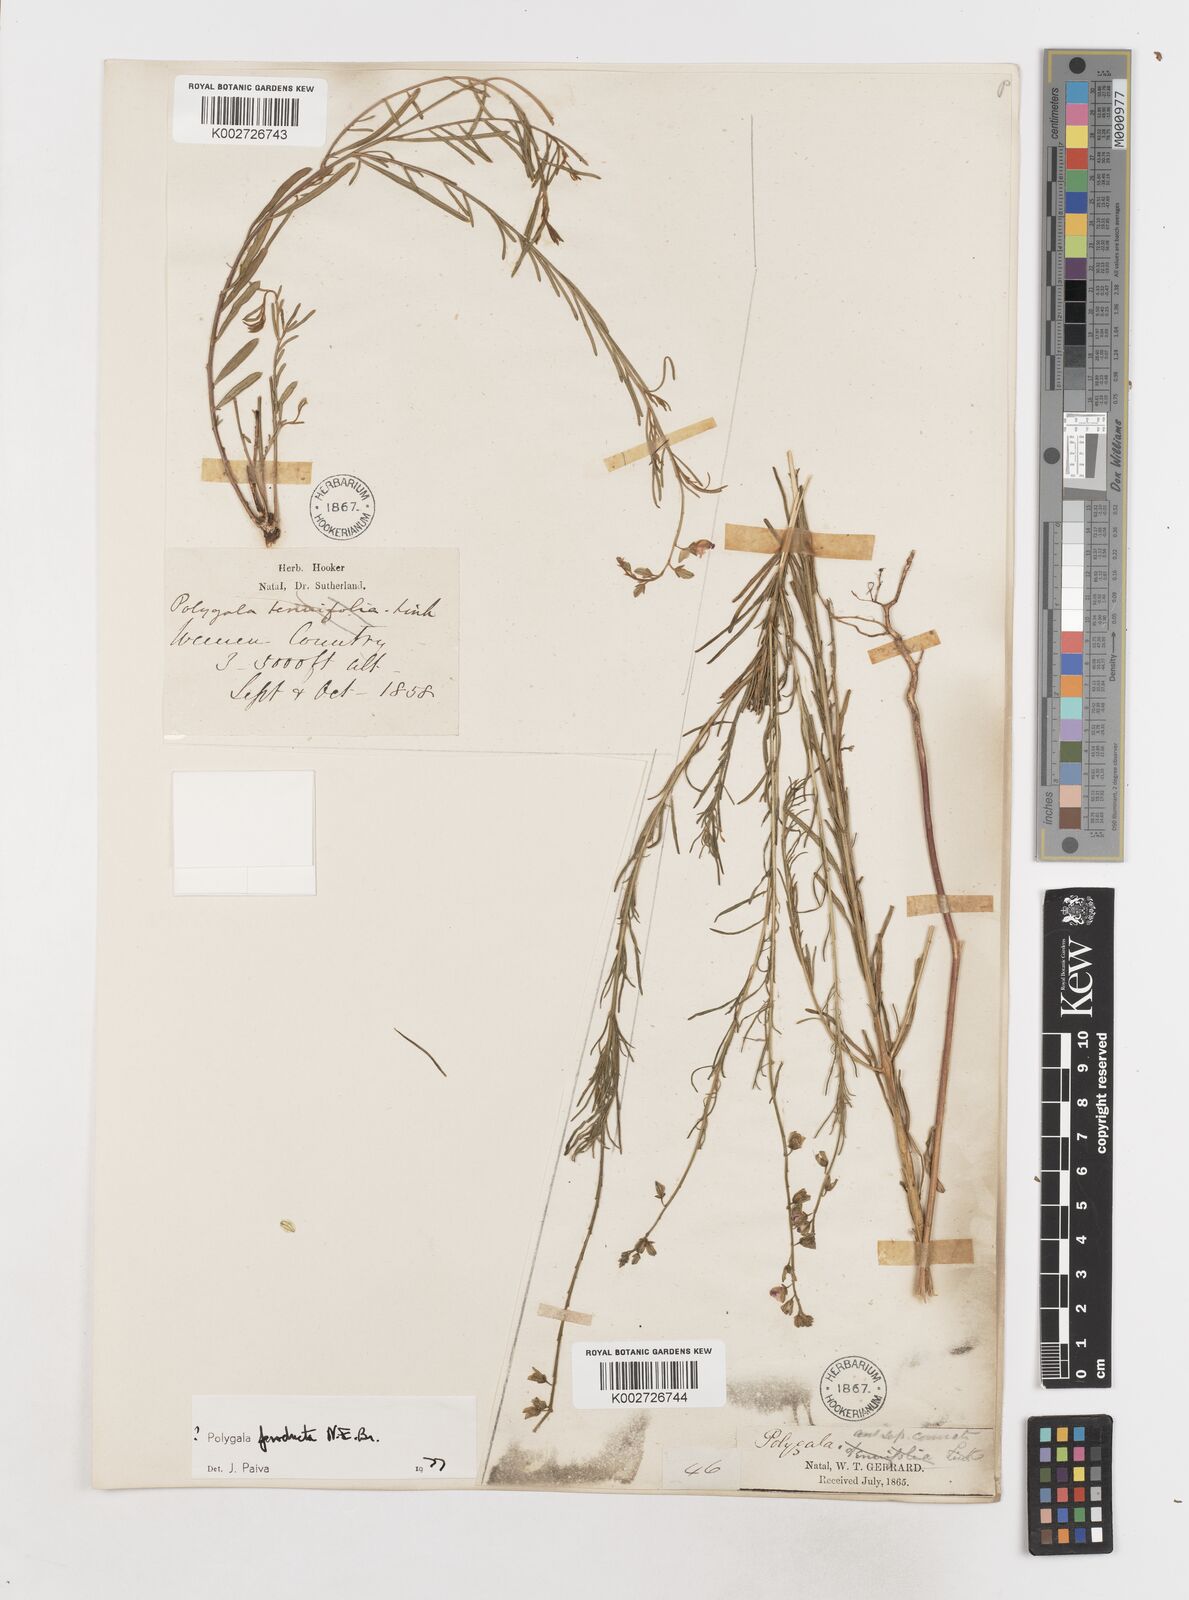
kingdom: Plantae
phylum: Tracheophyta
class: Magnoliopsida
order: Fabales
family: Polygalaceae
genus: Polygala
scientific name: Polygala producta
